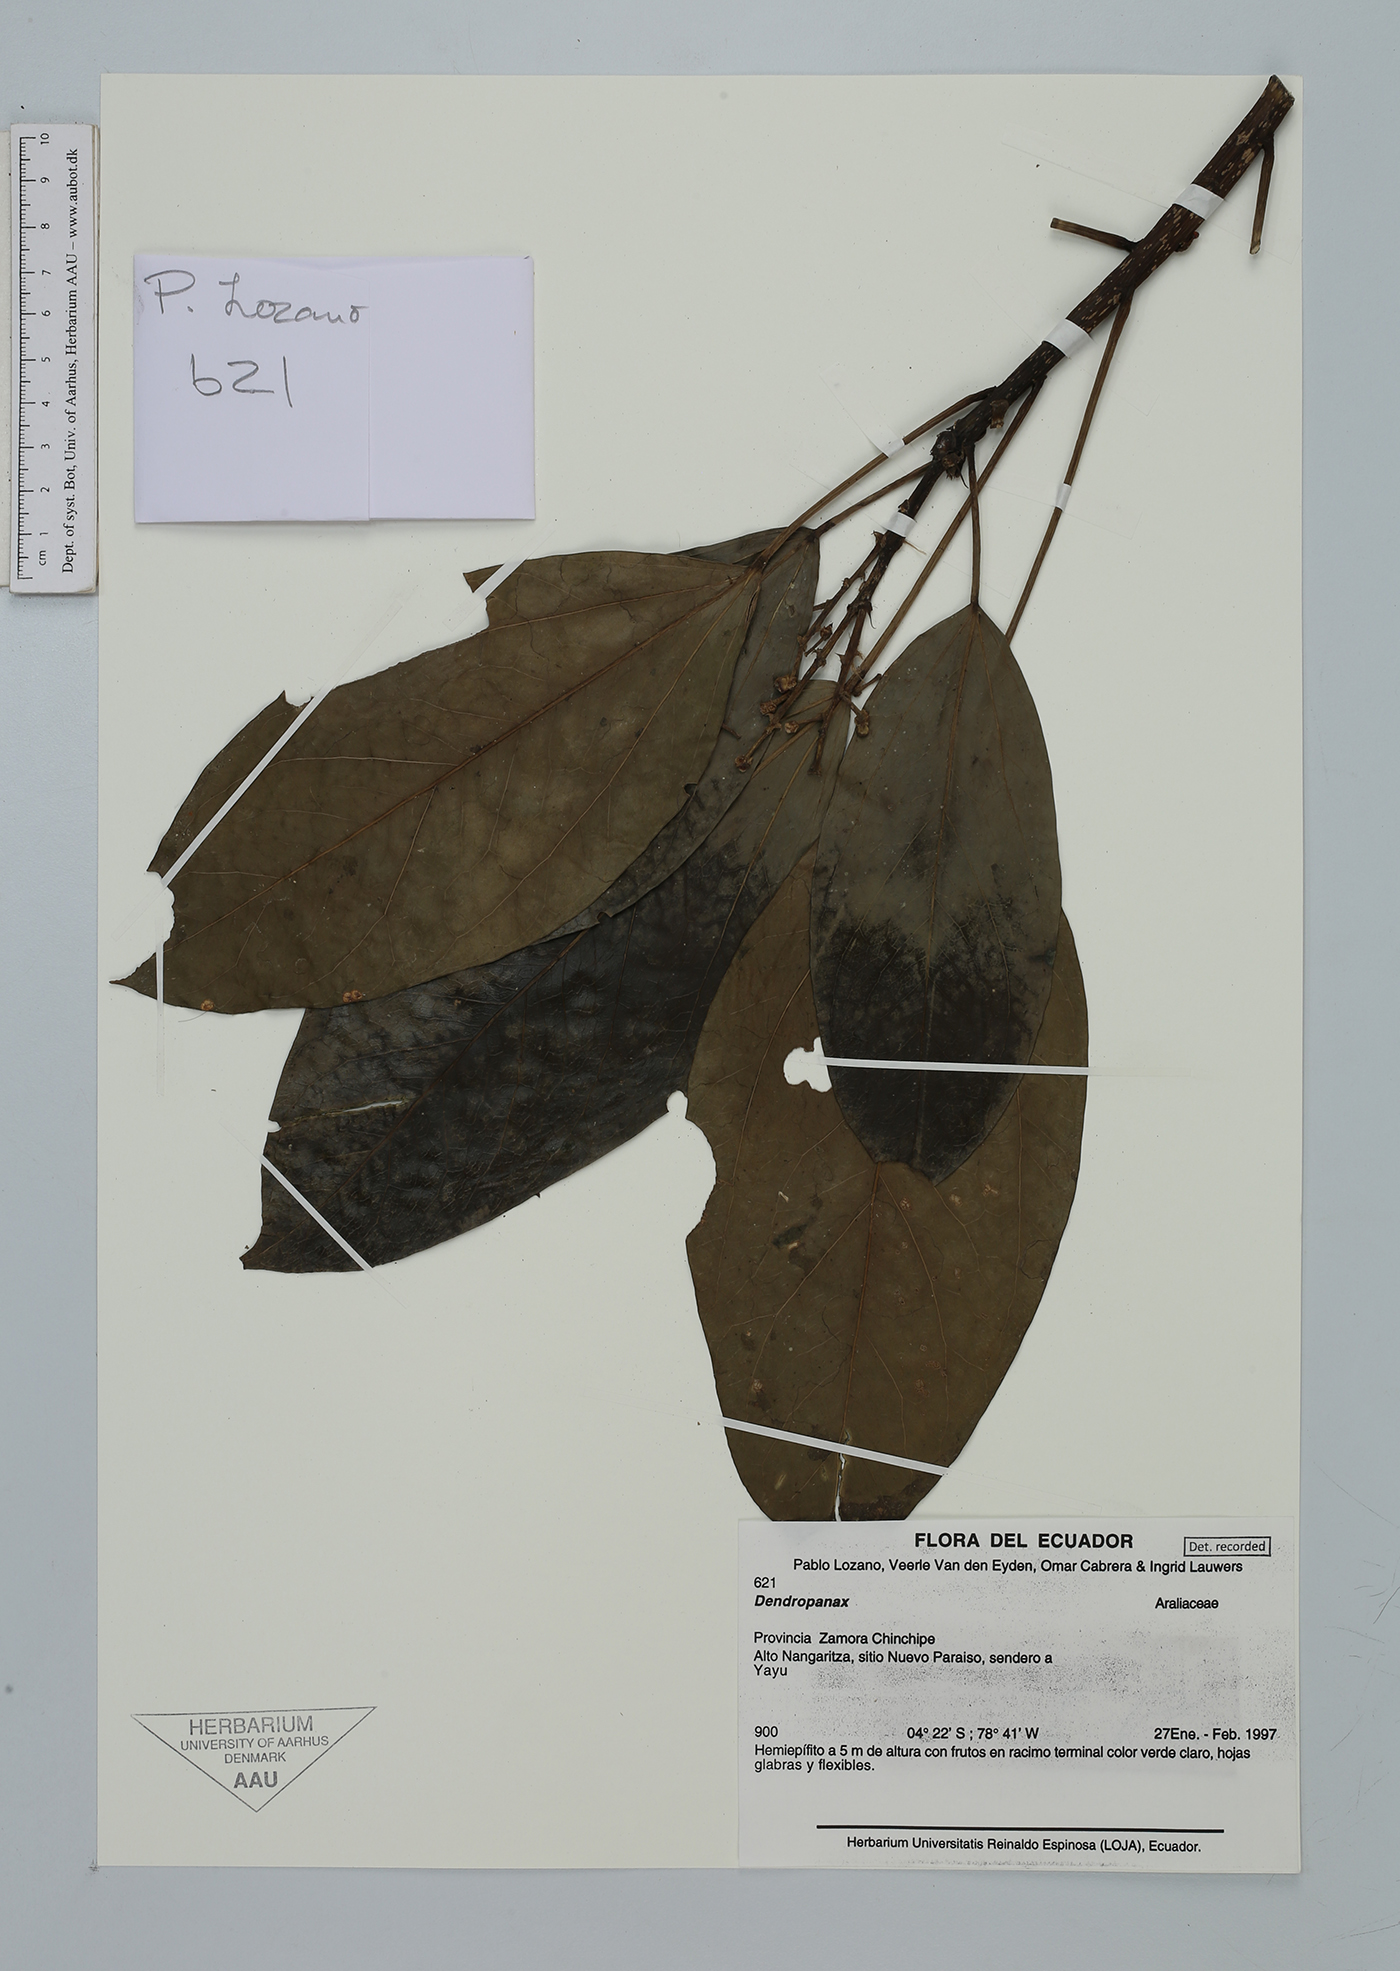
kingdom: Plantae
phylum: Tracheophyta
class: Magnoliopsida
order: Apiales
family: Araliaceae
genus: Dendropanax
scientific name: Dendropanax
